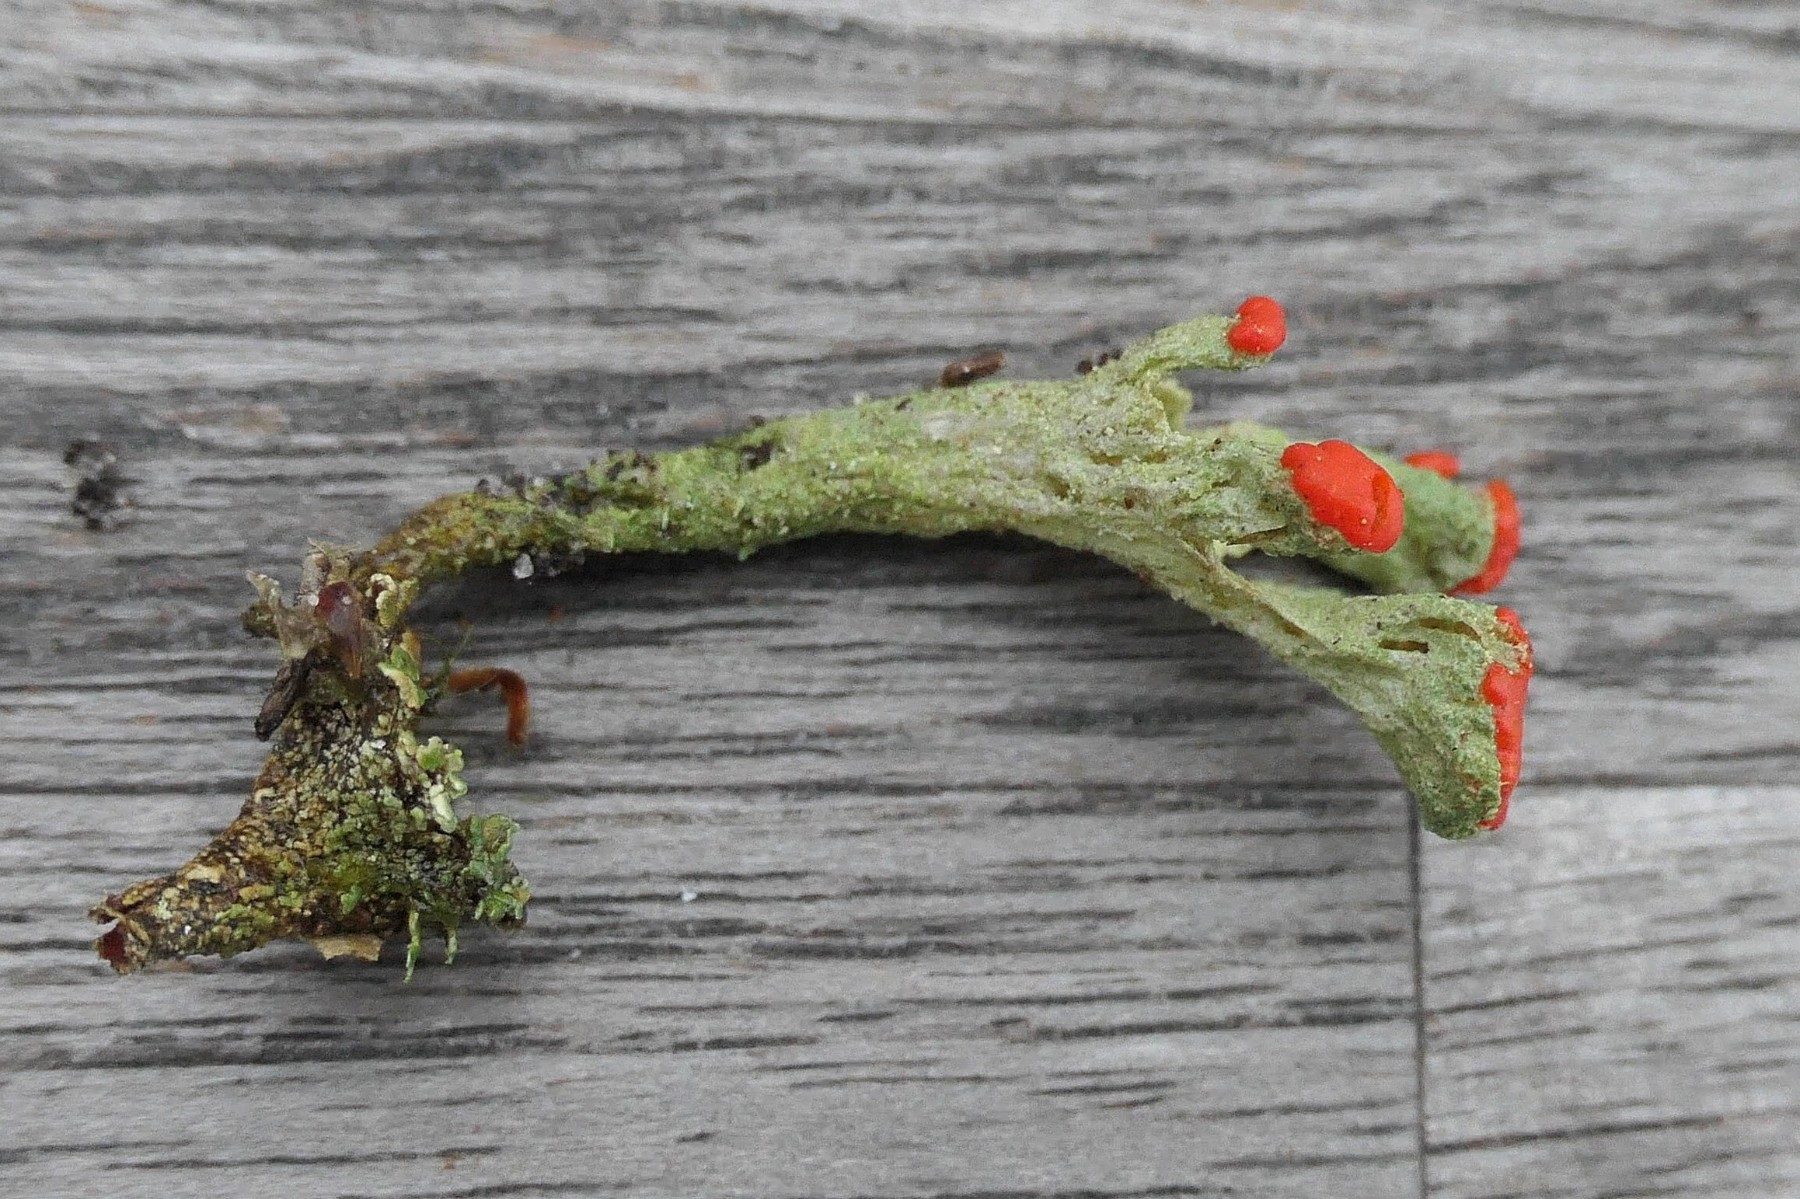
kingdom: Fungi
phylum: Ascomycota
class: Lecanoromycetes
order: Lecanorales
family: Cladoniaceae
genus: Cladonia
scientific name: Cladonia diversa
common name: rød bægerlav
